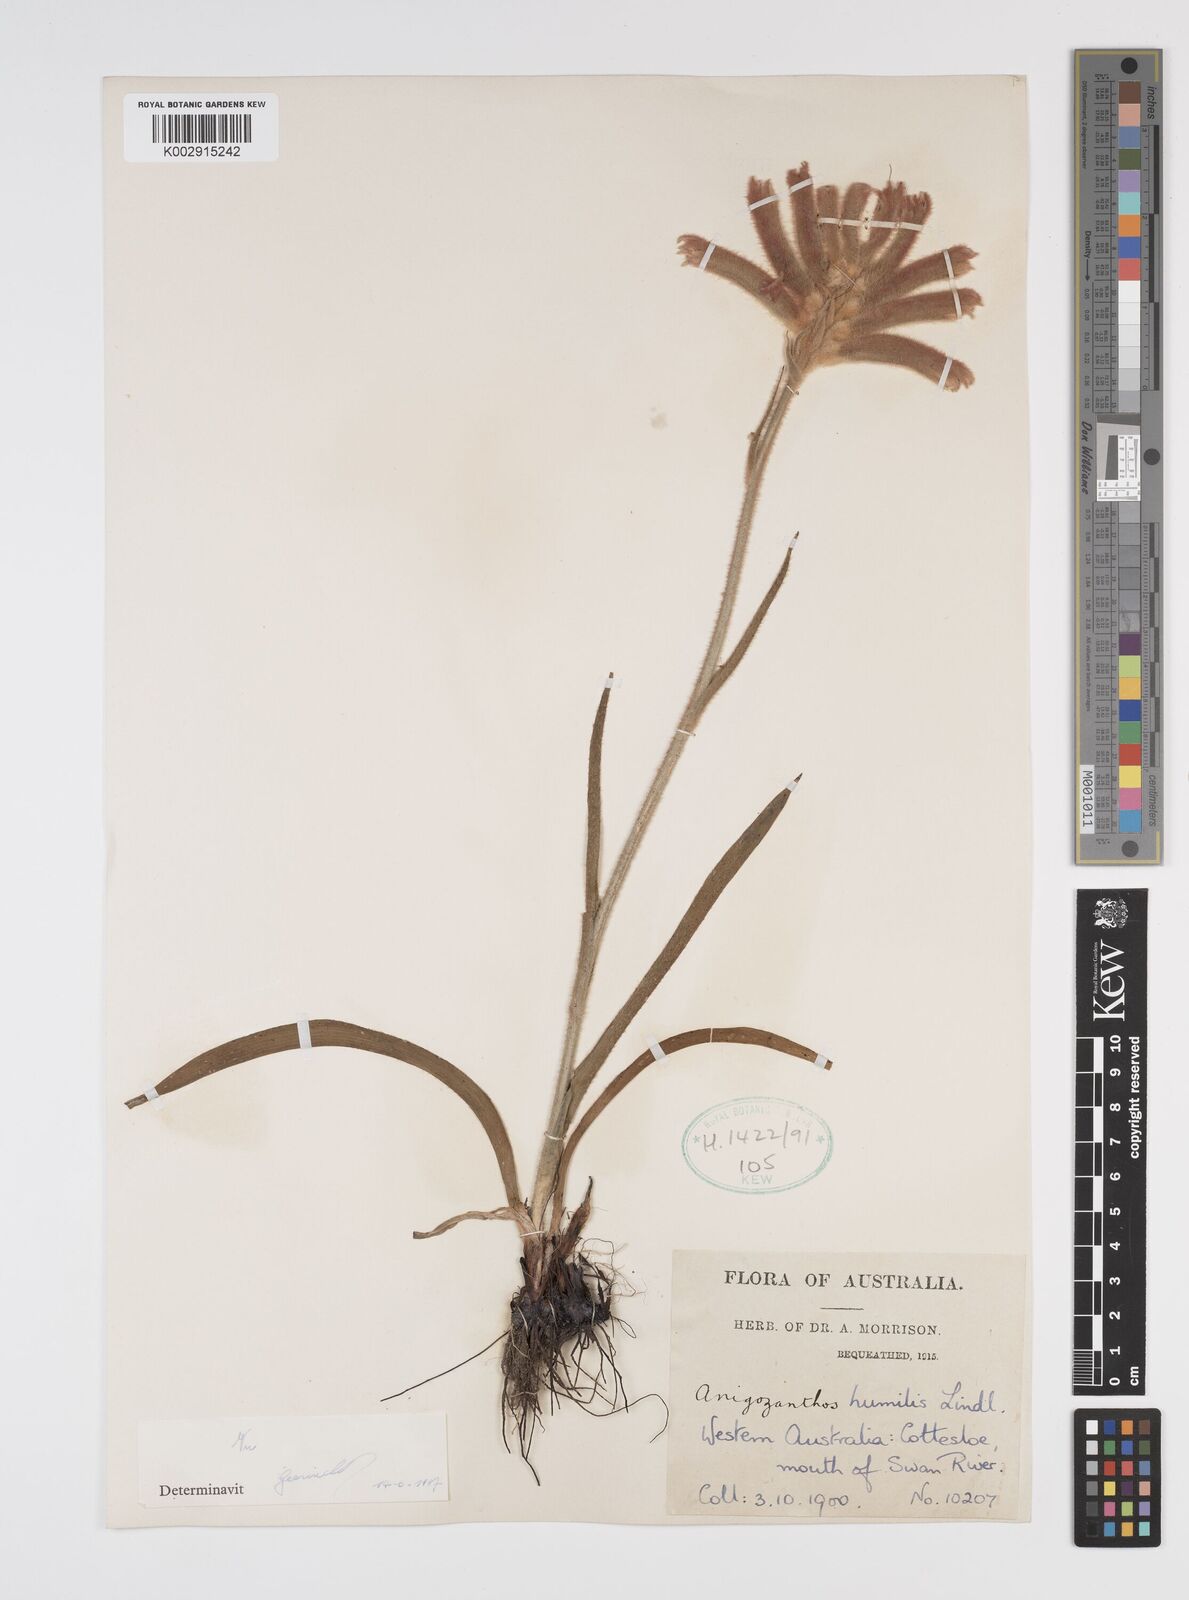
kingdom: Plantae
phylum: Tracheophyta
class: Liliopsida
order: Commelinales
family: Haemodoraceae
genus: Anigozanthos
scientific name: Anigozanthos humilis
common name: Cat's-paw
